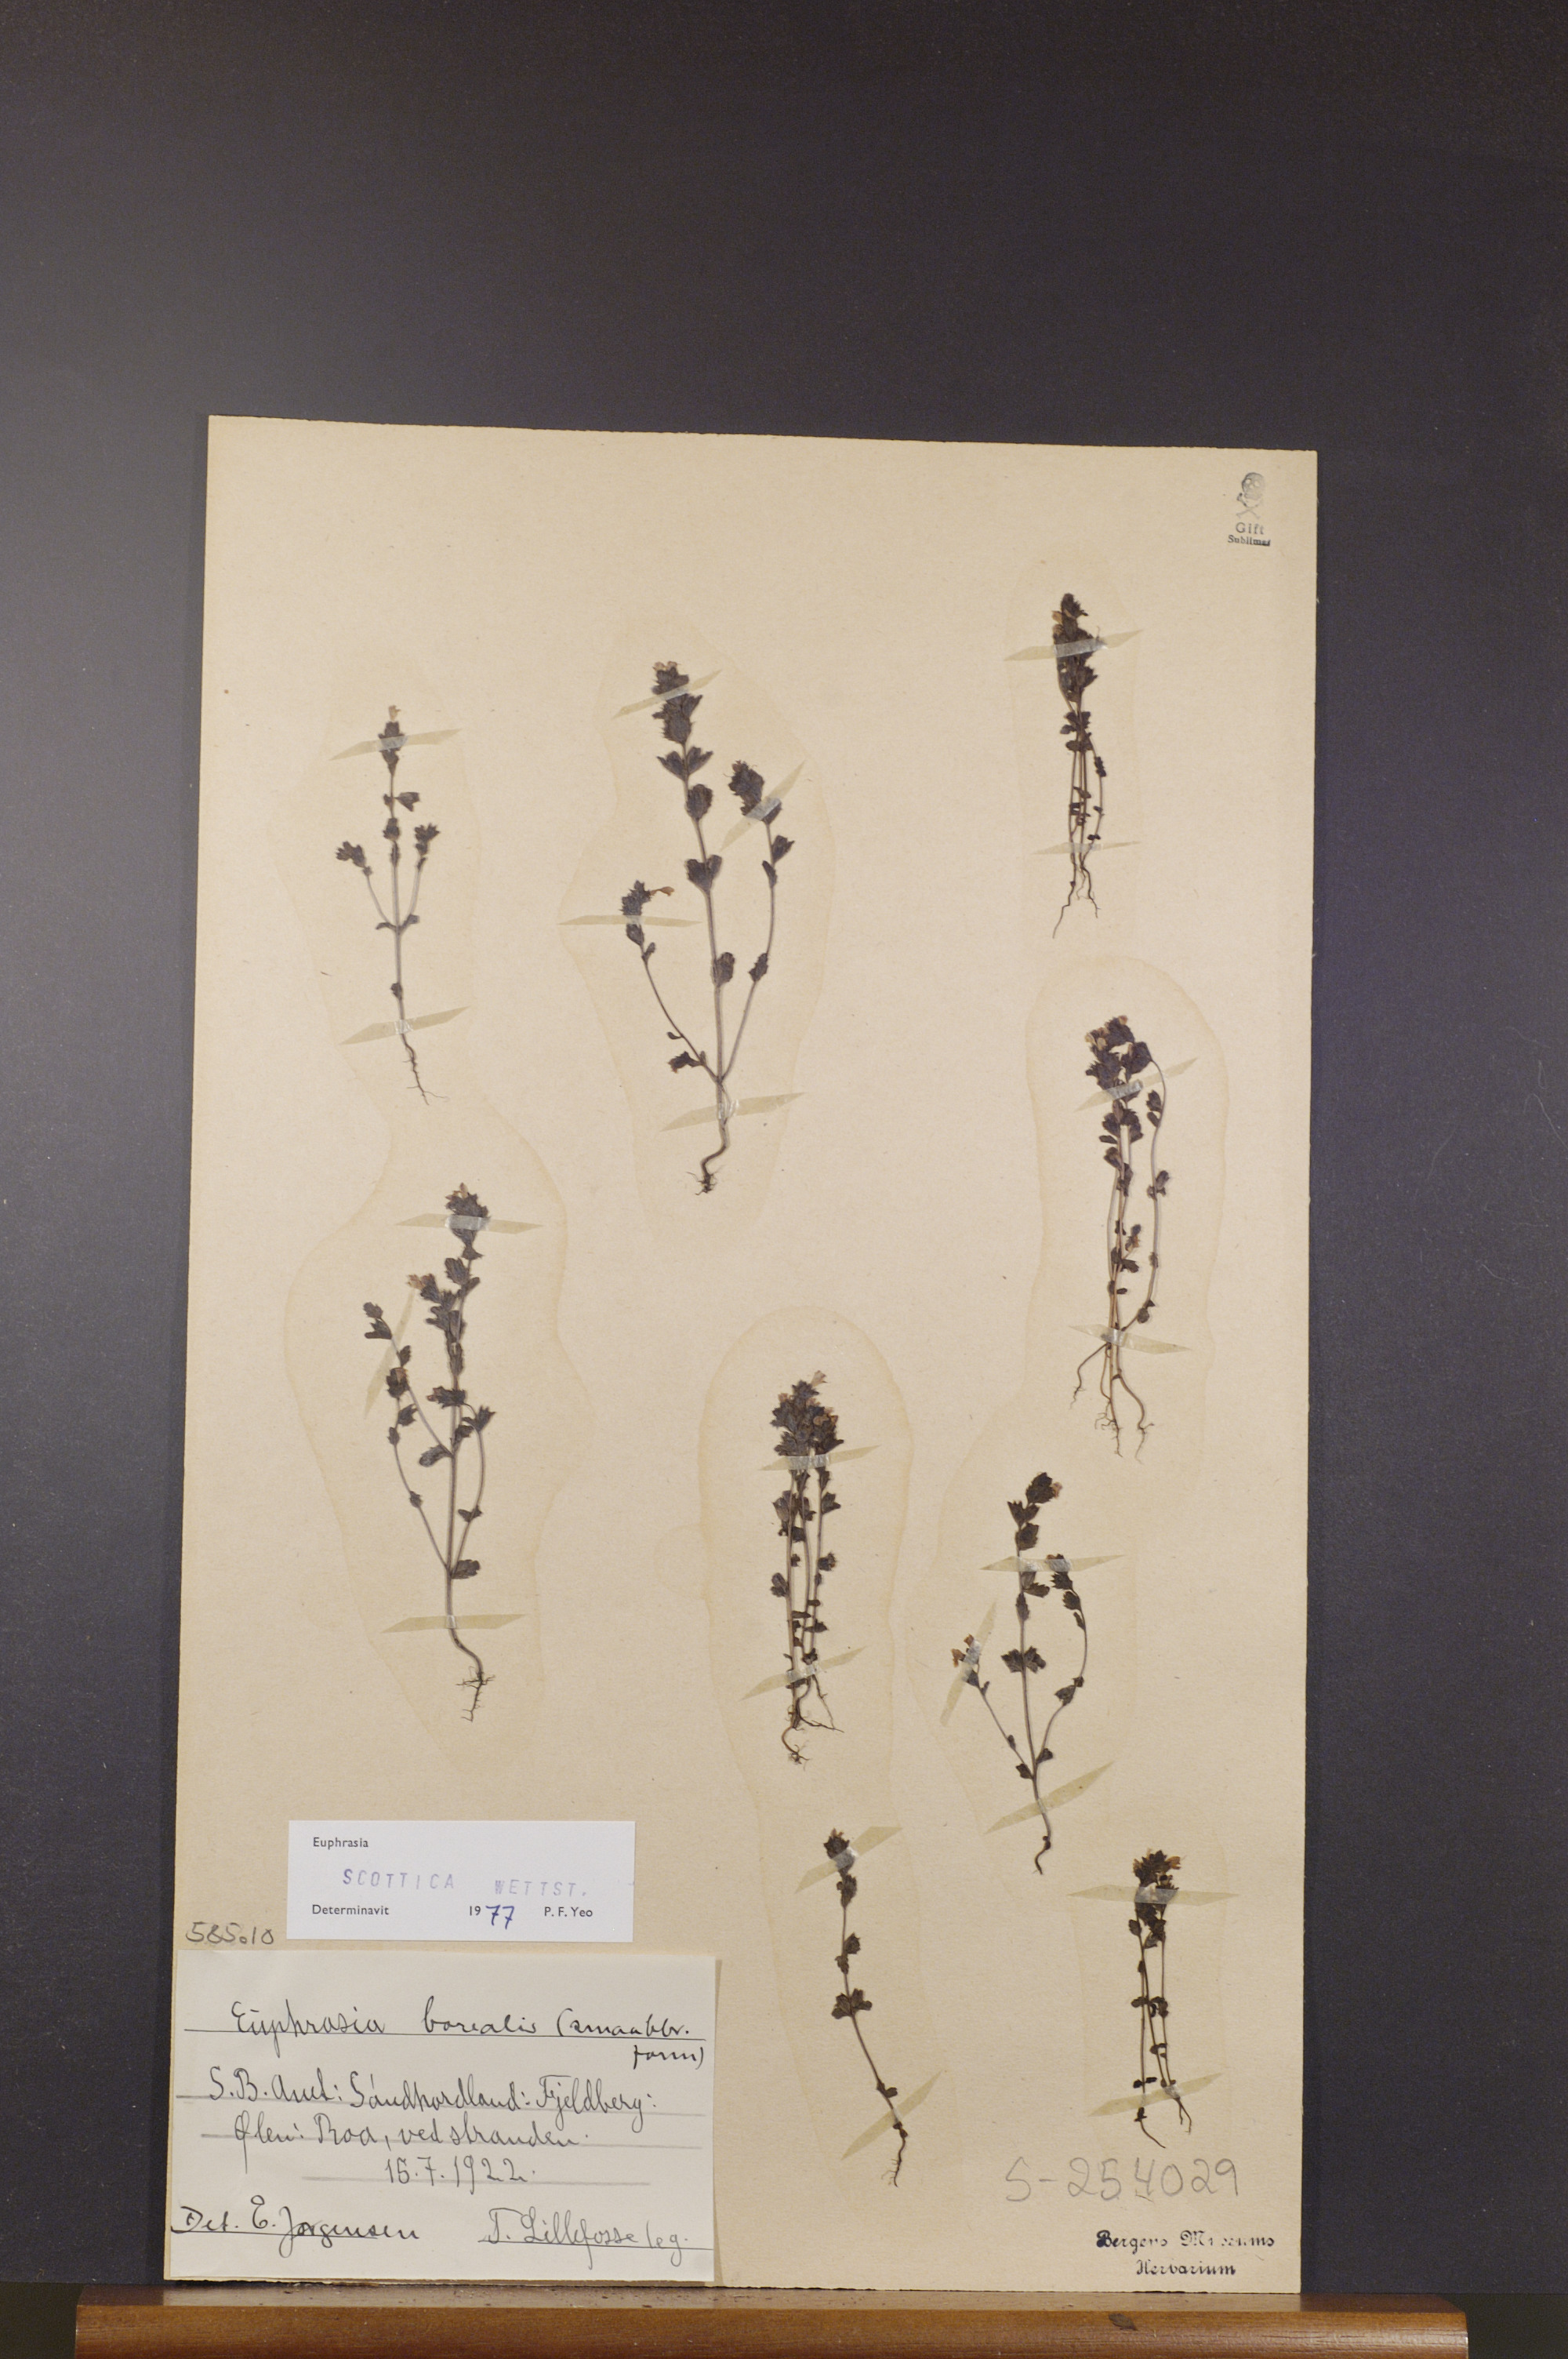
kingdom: Plantae
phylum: Tracheophyta
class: Magnoliopsida
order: Lamiales
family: Orobanchaceae
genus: Euphrasia
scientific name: Euphrasia scottica
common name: Slender scottish eyebright
